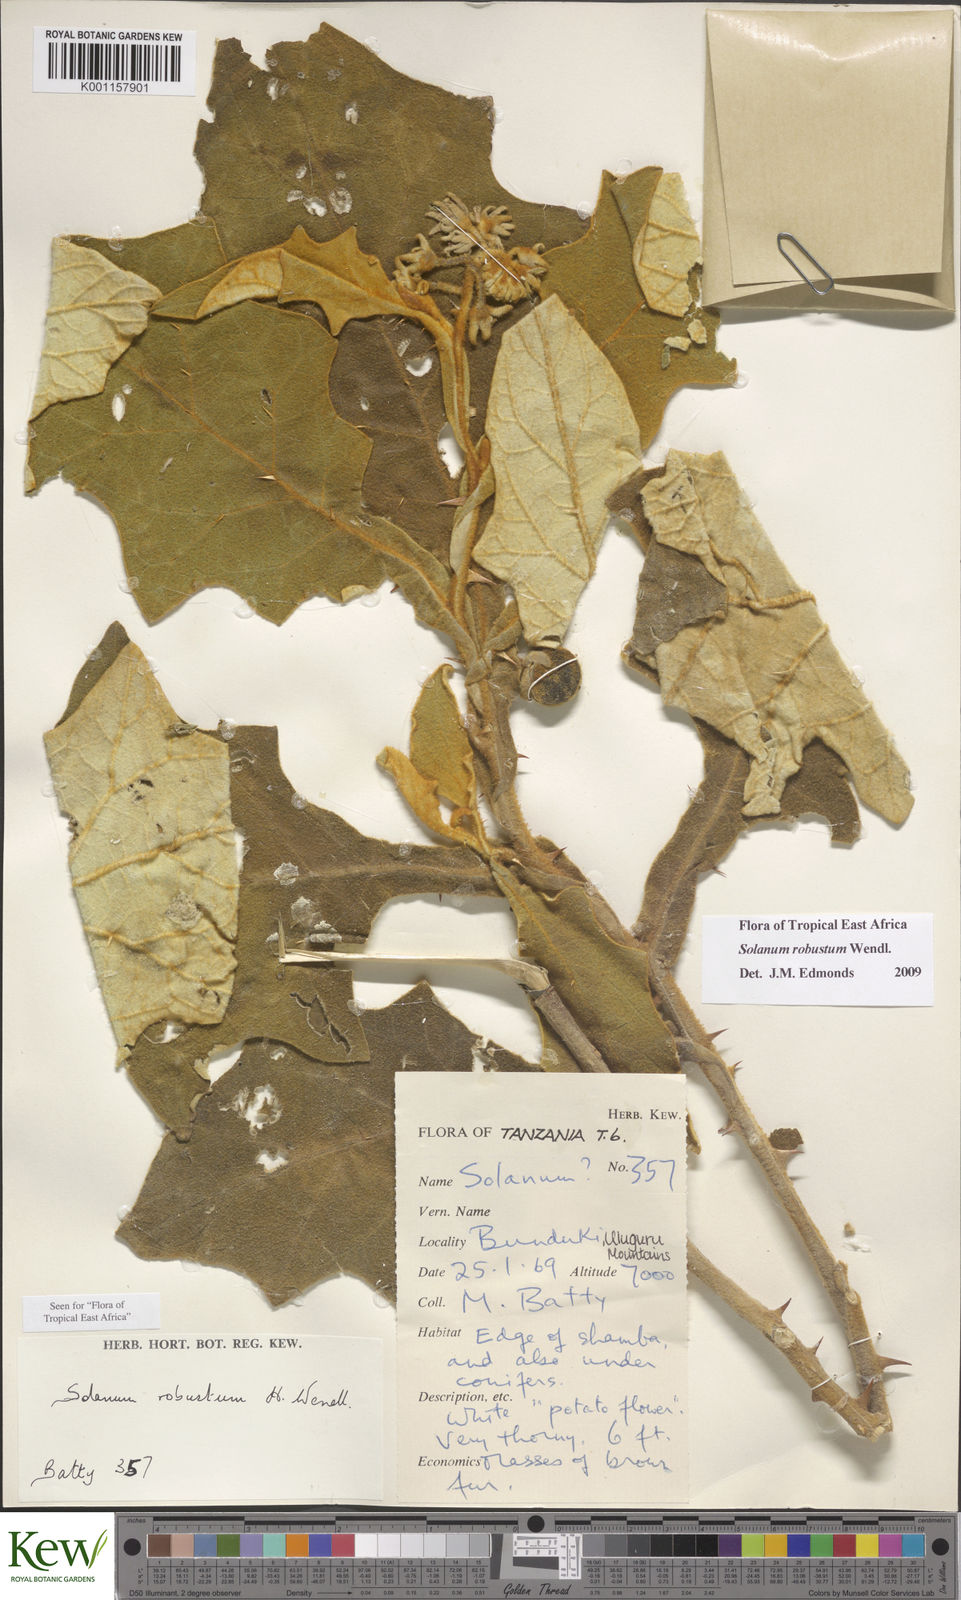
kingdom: Plantae
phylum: Tracheophyta
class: Magnoliopsida
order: Solanales
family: Solanaceae
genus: Solanum
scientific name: Solanum robustum
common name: Shrubby nightshade
